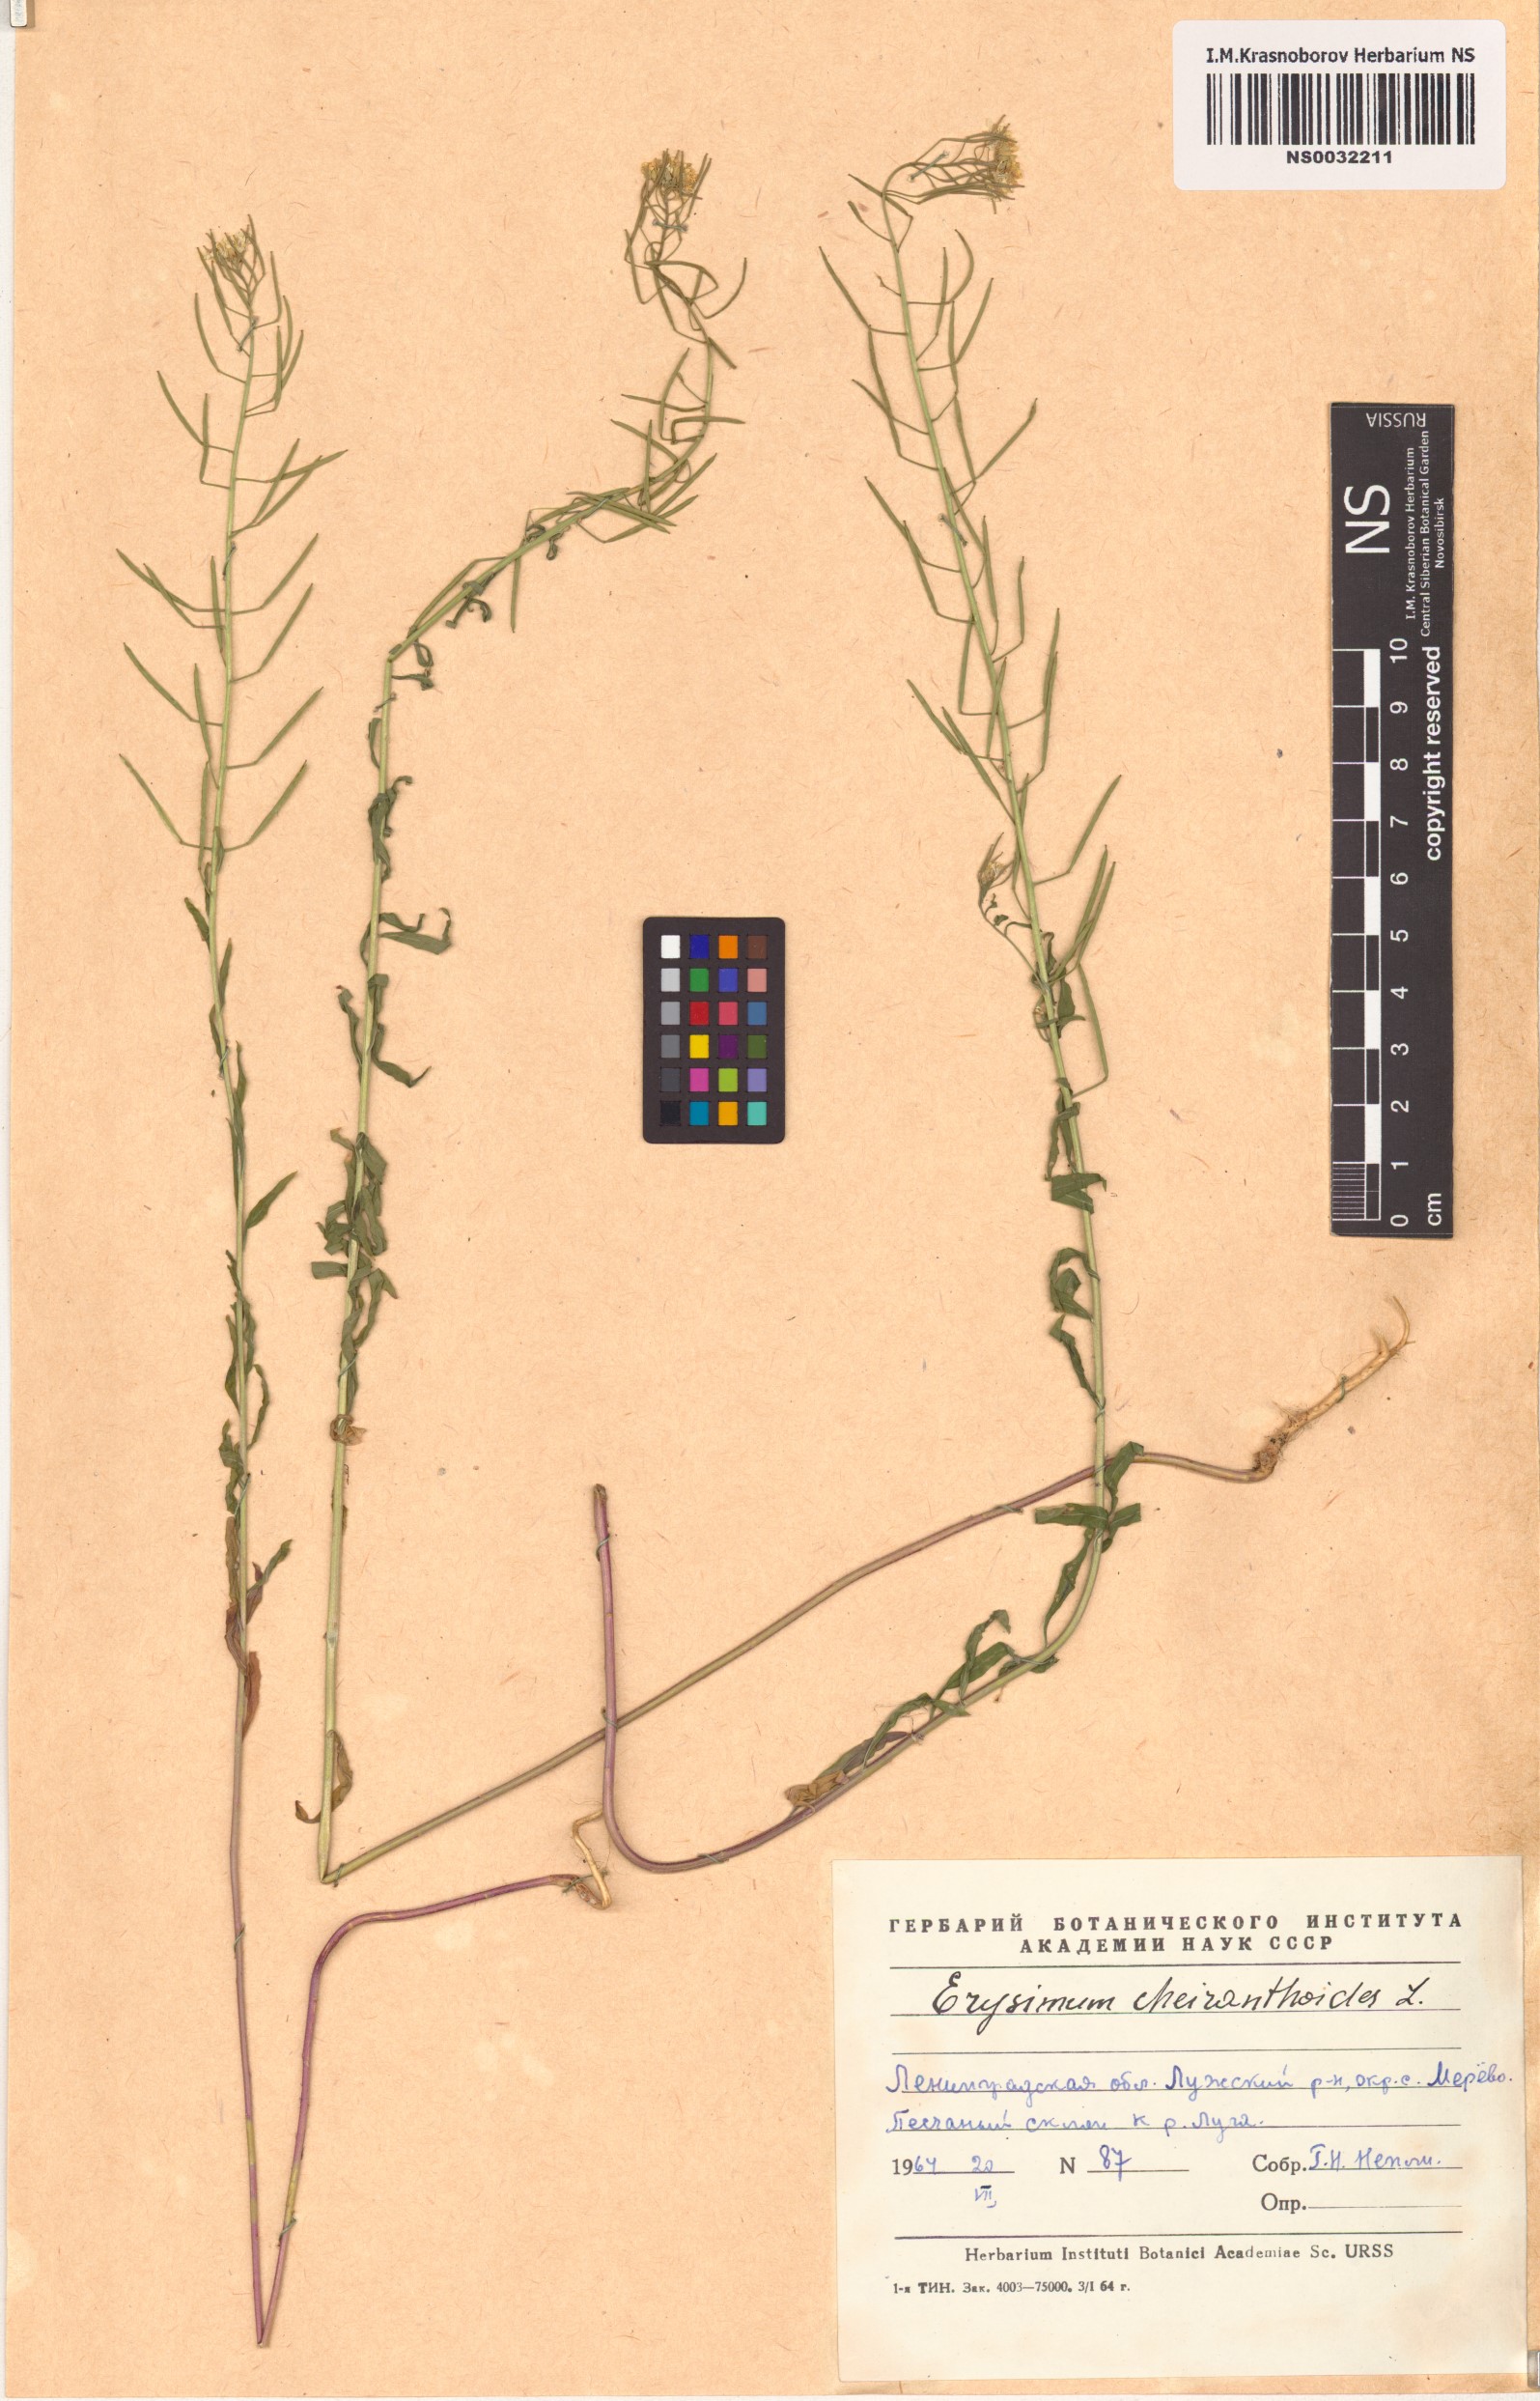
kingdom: Plantae
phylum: Tracheophyta
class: Magnoliopsida
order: Brassicales
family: Brassicaceae
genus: Erysimum
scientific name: Erysimum cheiranthoides
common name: Treacle mustard
